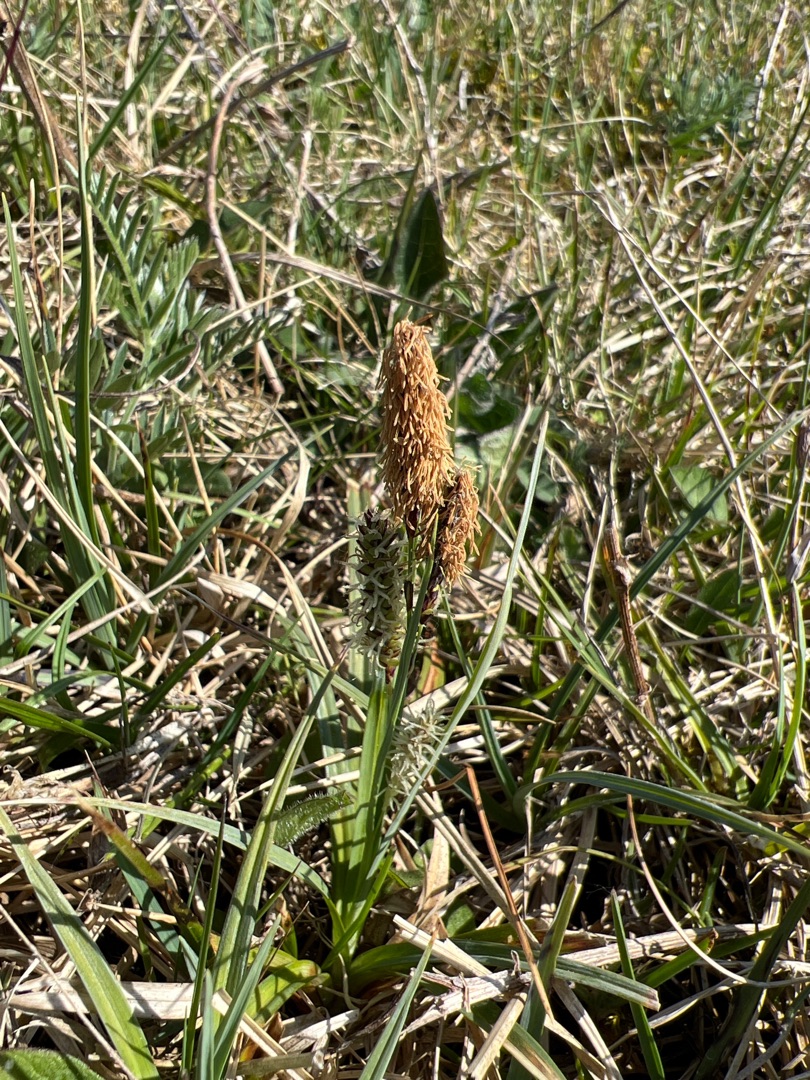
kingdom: Plantae
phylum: Tracheophyta
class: Liliopsida
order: Poales
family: Cyperaceae
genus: Carex
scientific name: Carex flacca
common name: Blågrøn star
